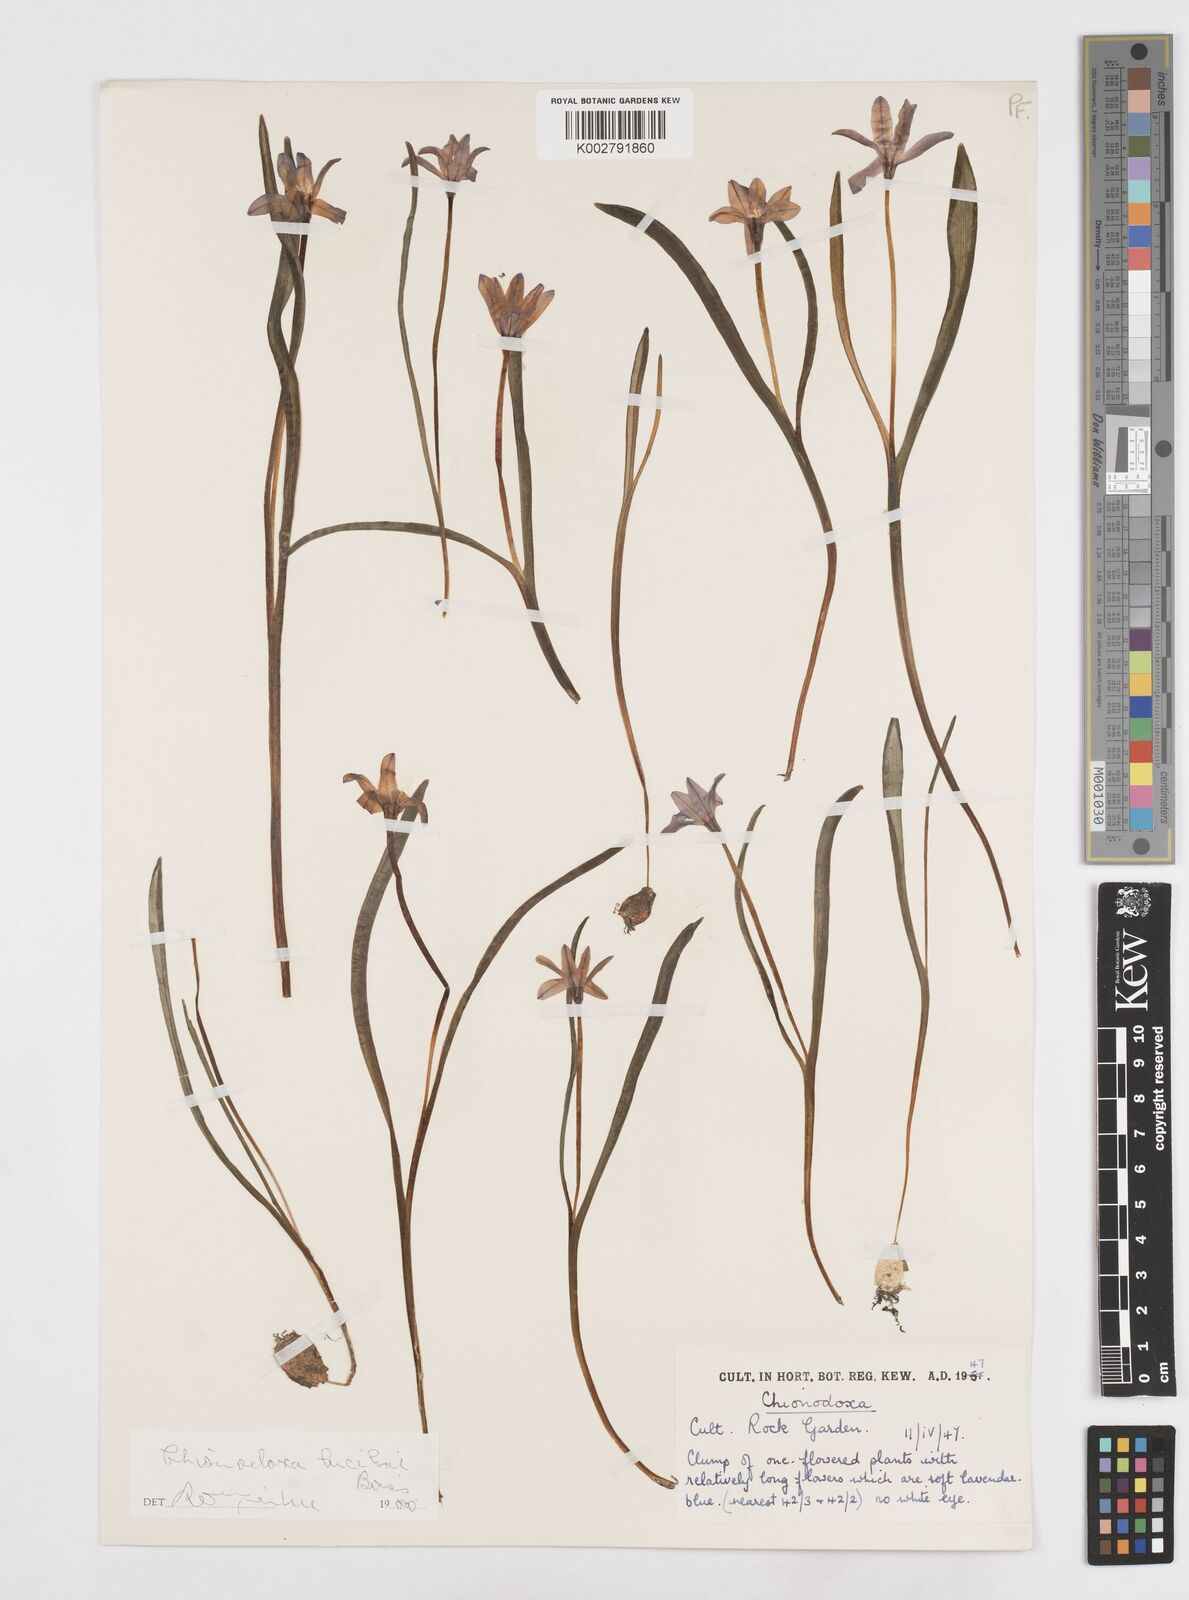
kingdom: Plantae
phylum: Tracheophyta
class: Liliopsida
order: Asparagales
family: Asparagaceae
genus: Scilla
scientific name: Scilla luciliae
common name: Boissier's glory-of-the-snow
